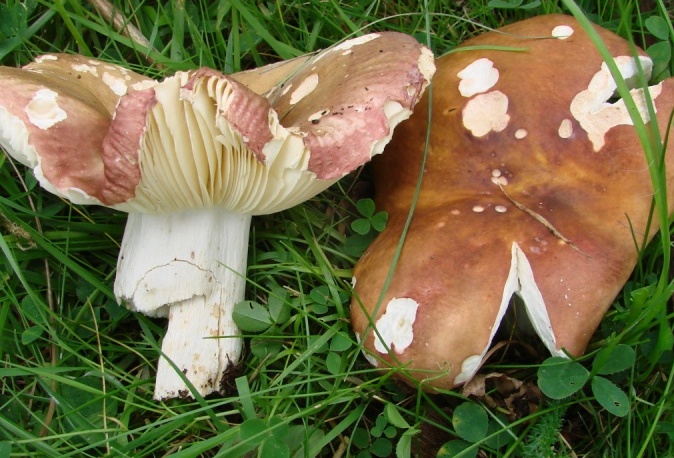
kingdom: Fungi
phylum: Basidiomycota
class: Agaricomycetes
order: Russulales
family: Russulaceae
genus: Russula
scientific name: Russula
